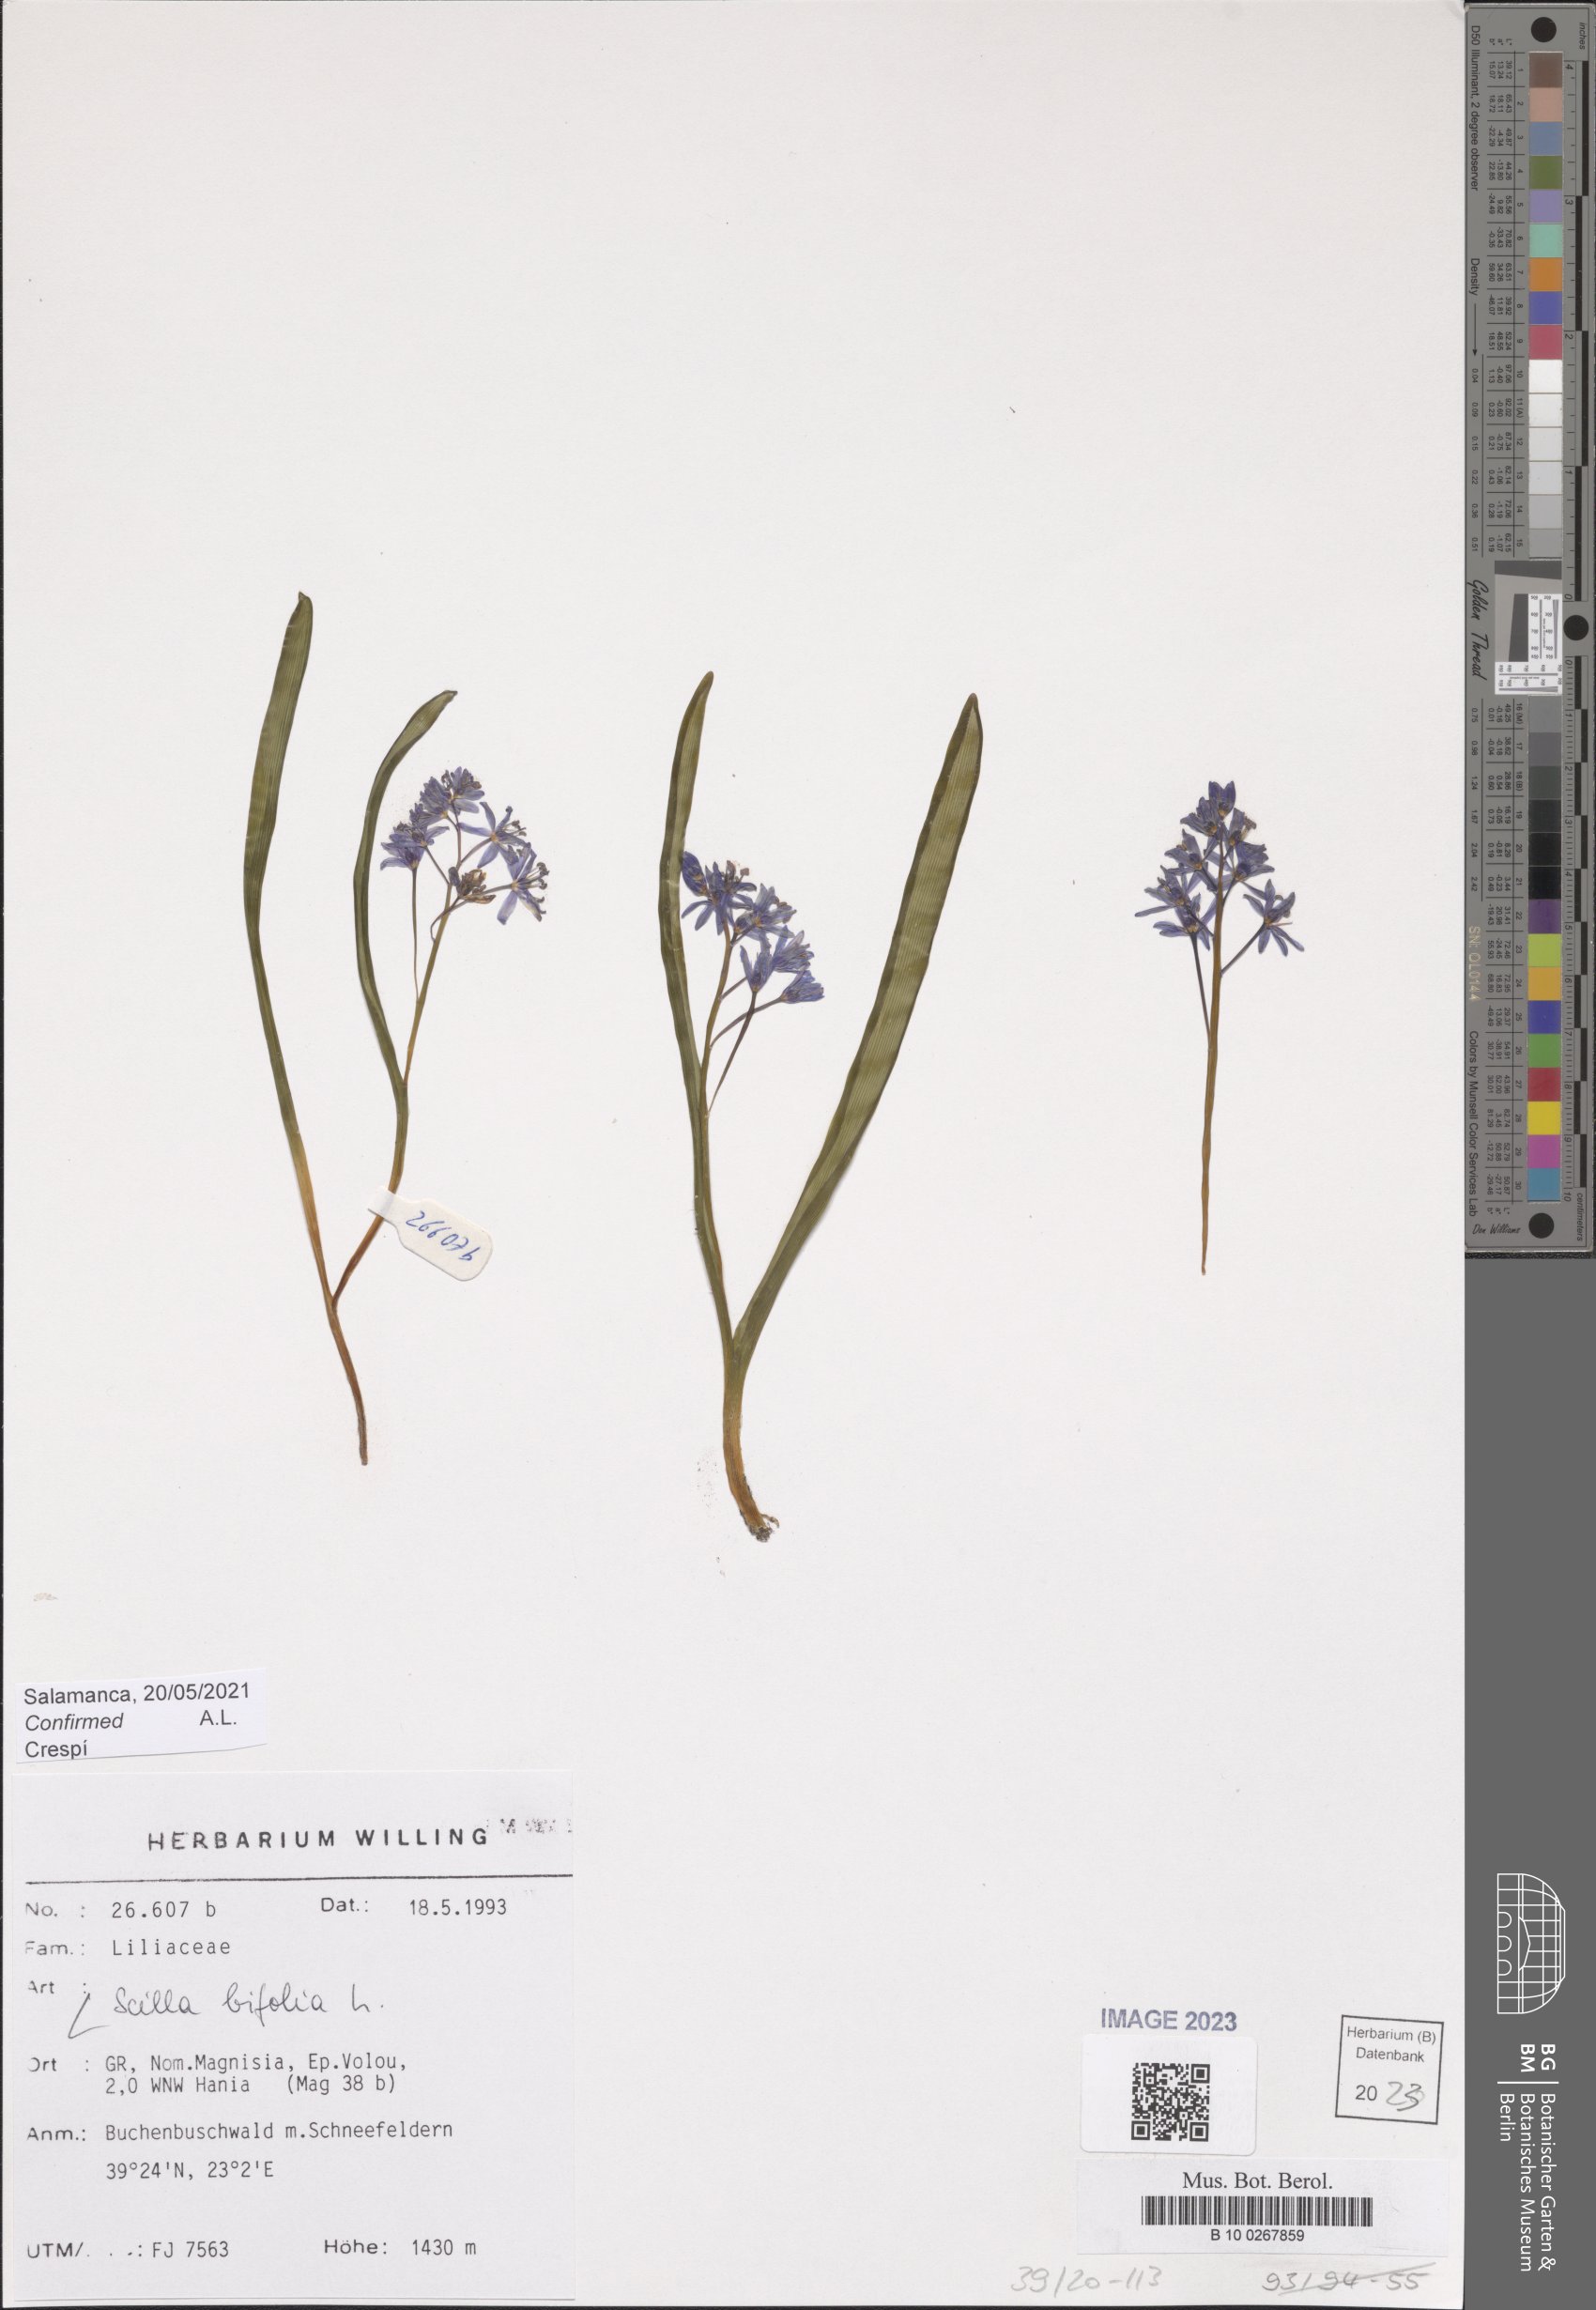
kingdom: Plantae
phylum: Tracheophyta
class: Liliopsida
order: Asparagales
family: Asparagaceae
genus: Scilla
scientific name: Scilla bifolia
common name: Alpine squill
